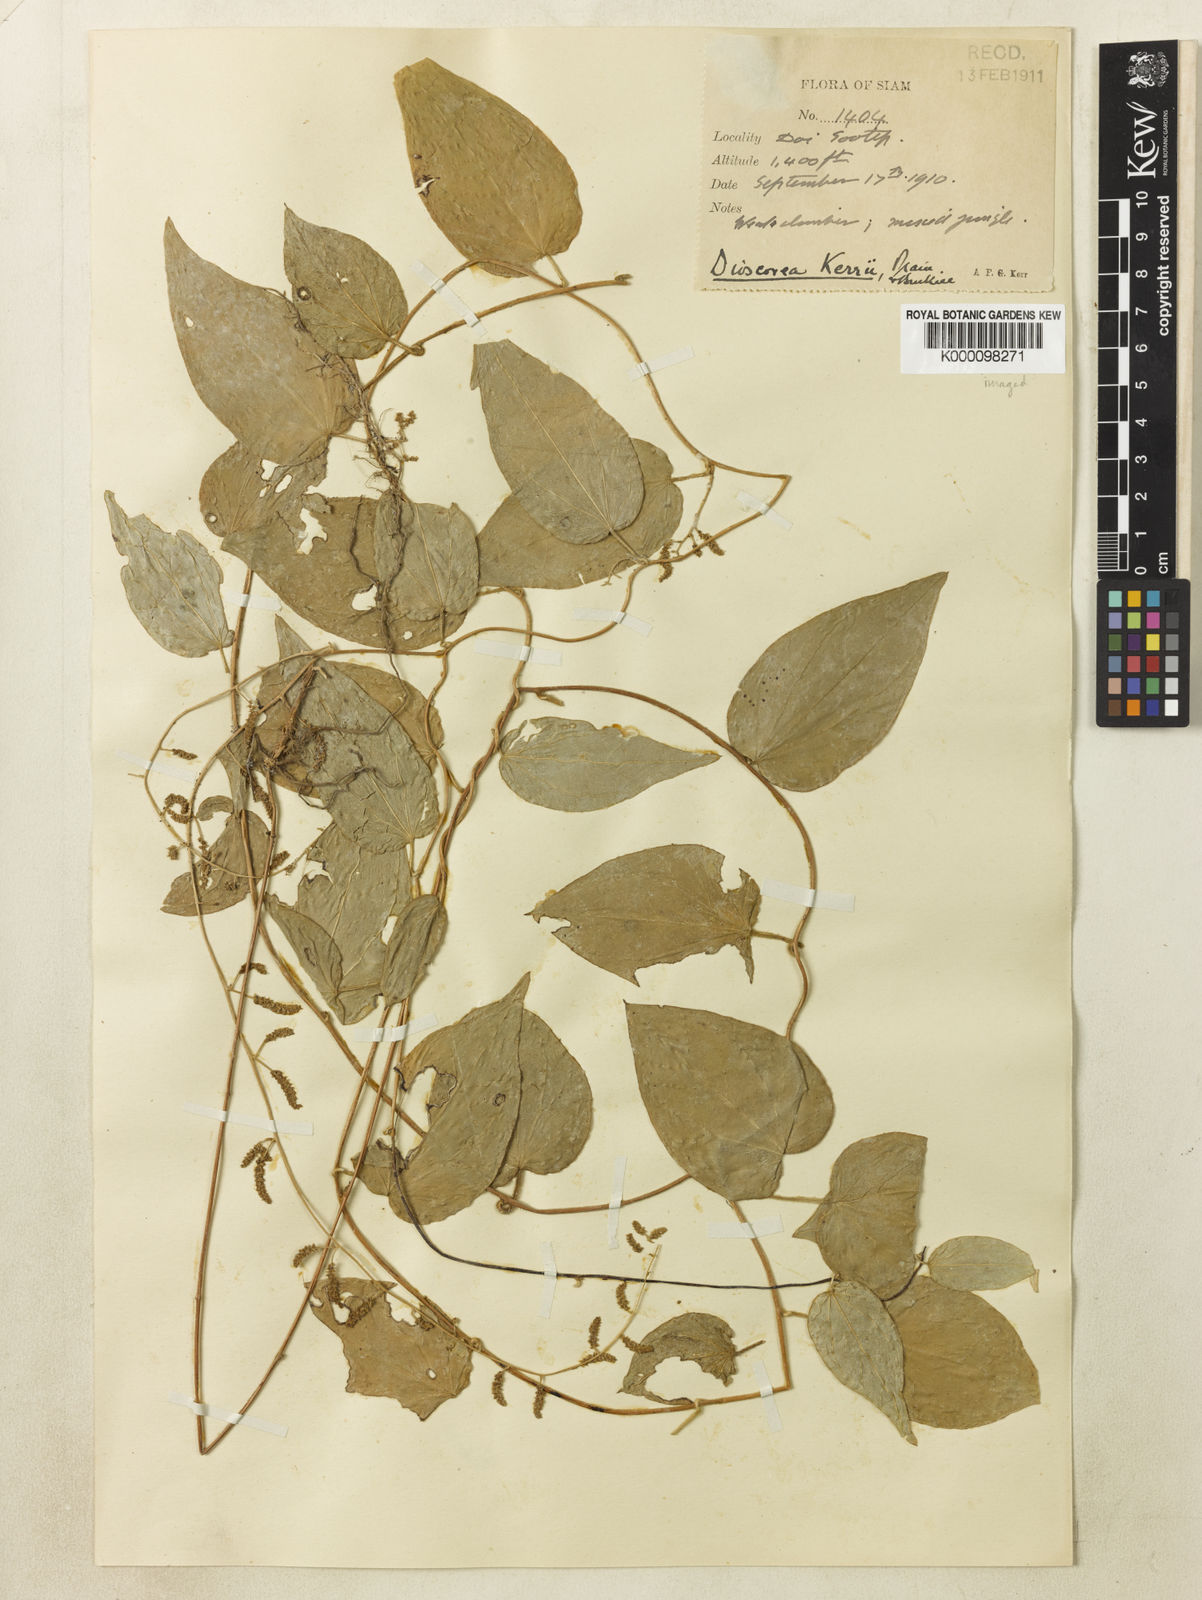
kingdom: Plantae
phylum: Tracheophyta
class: Liliopsida
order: Dioscoreales
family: Dioscoreaceae
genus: Dioscorea
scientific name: Dioscorea kerrii
